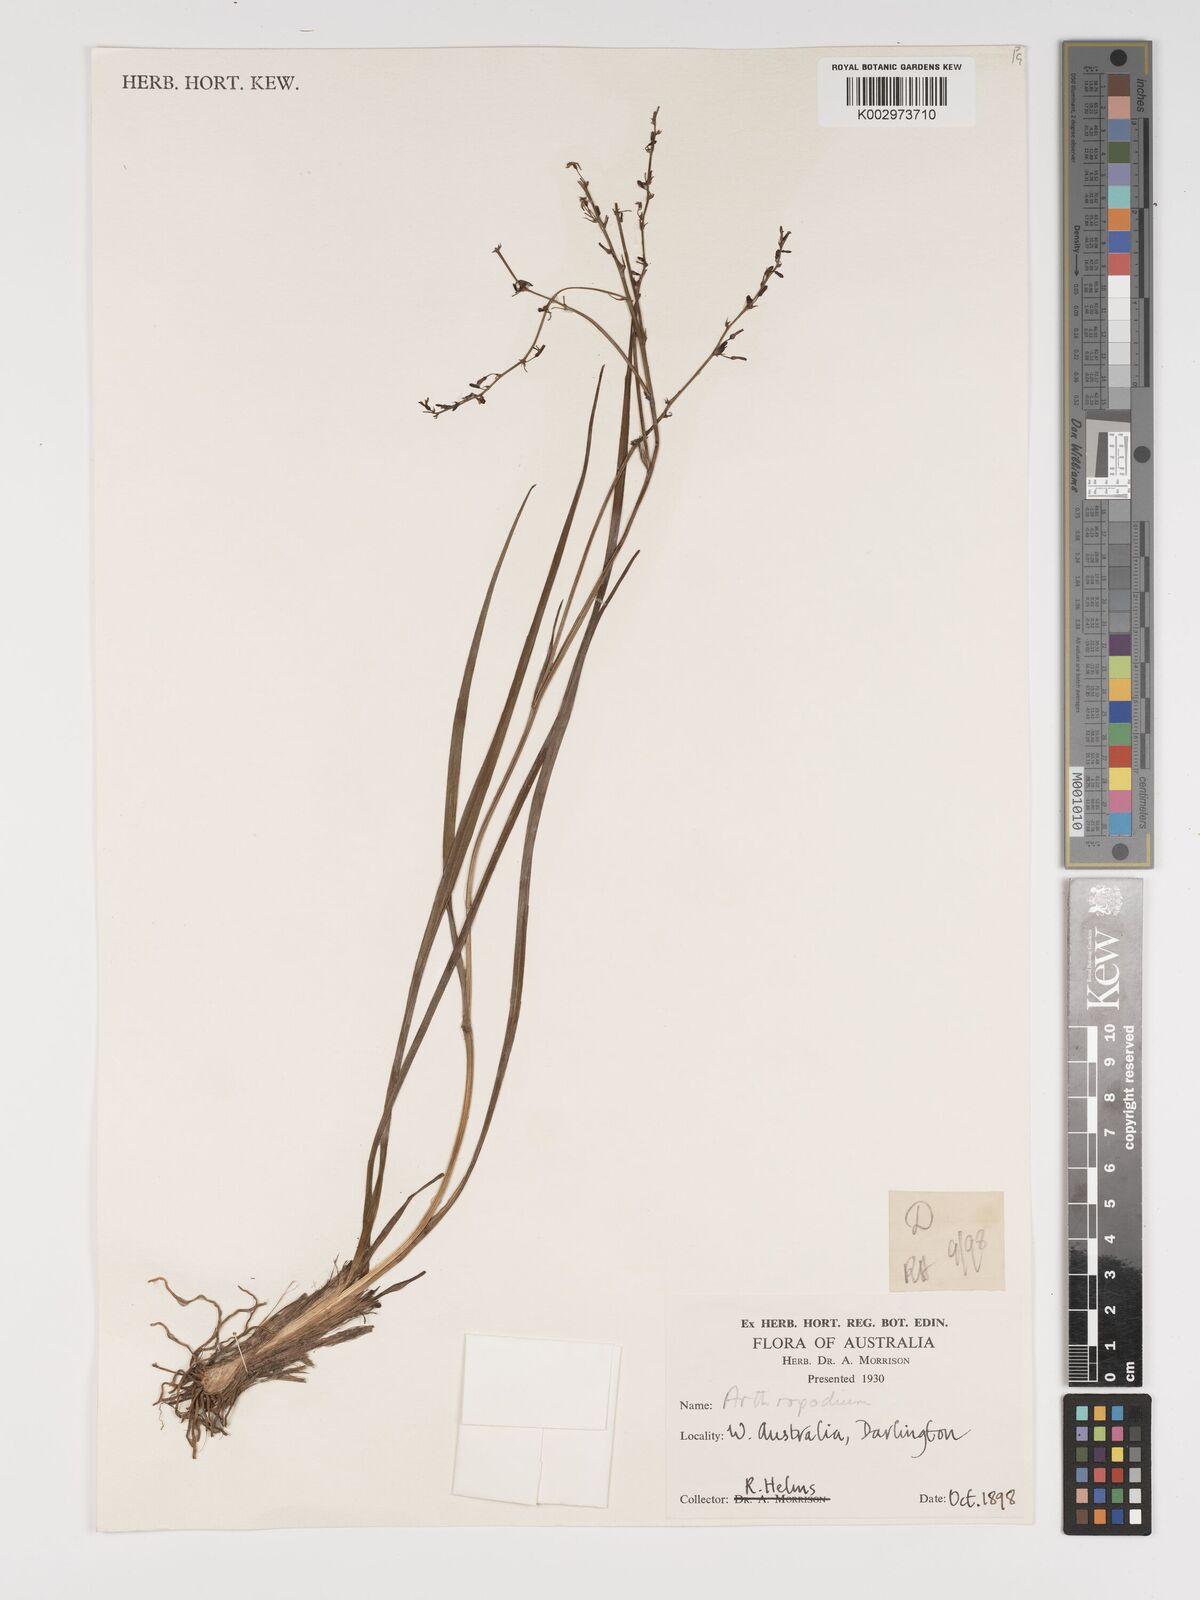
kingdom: Plantae
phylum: Tracheophyta
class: Liliopsida
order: Asparagales
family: Asparagaceae
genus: Arthropodium
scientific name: Arthropodium
